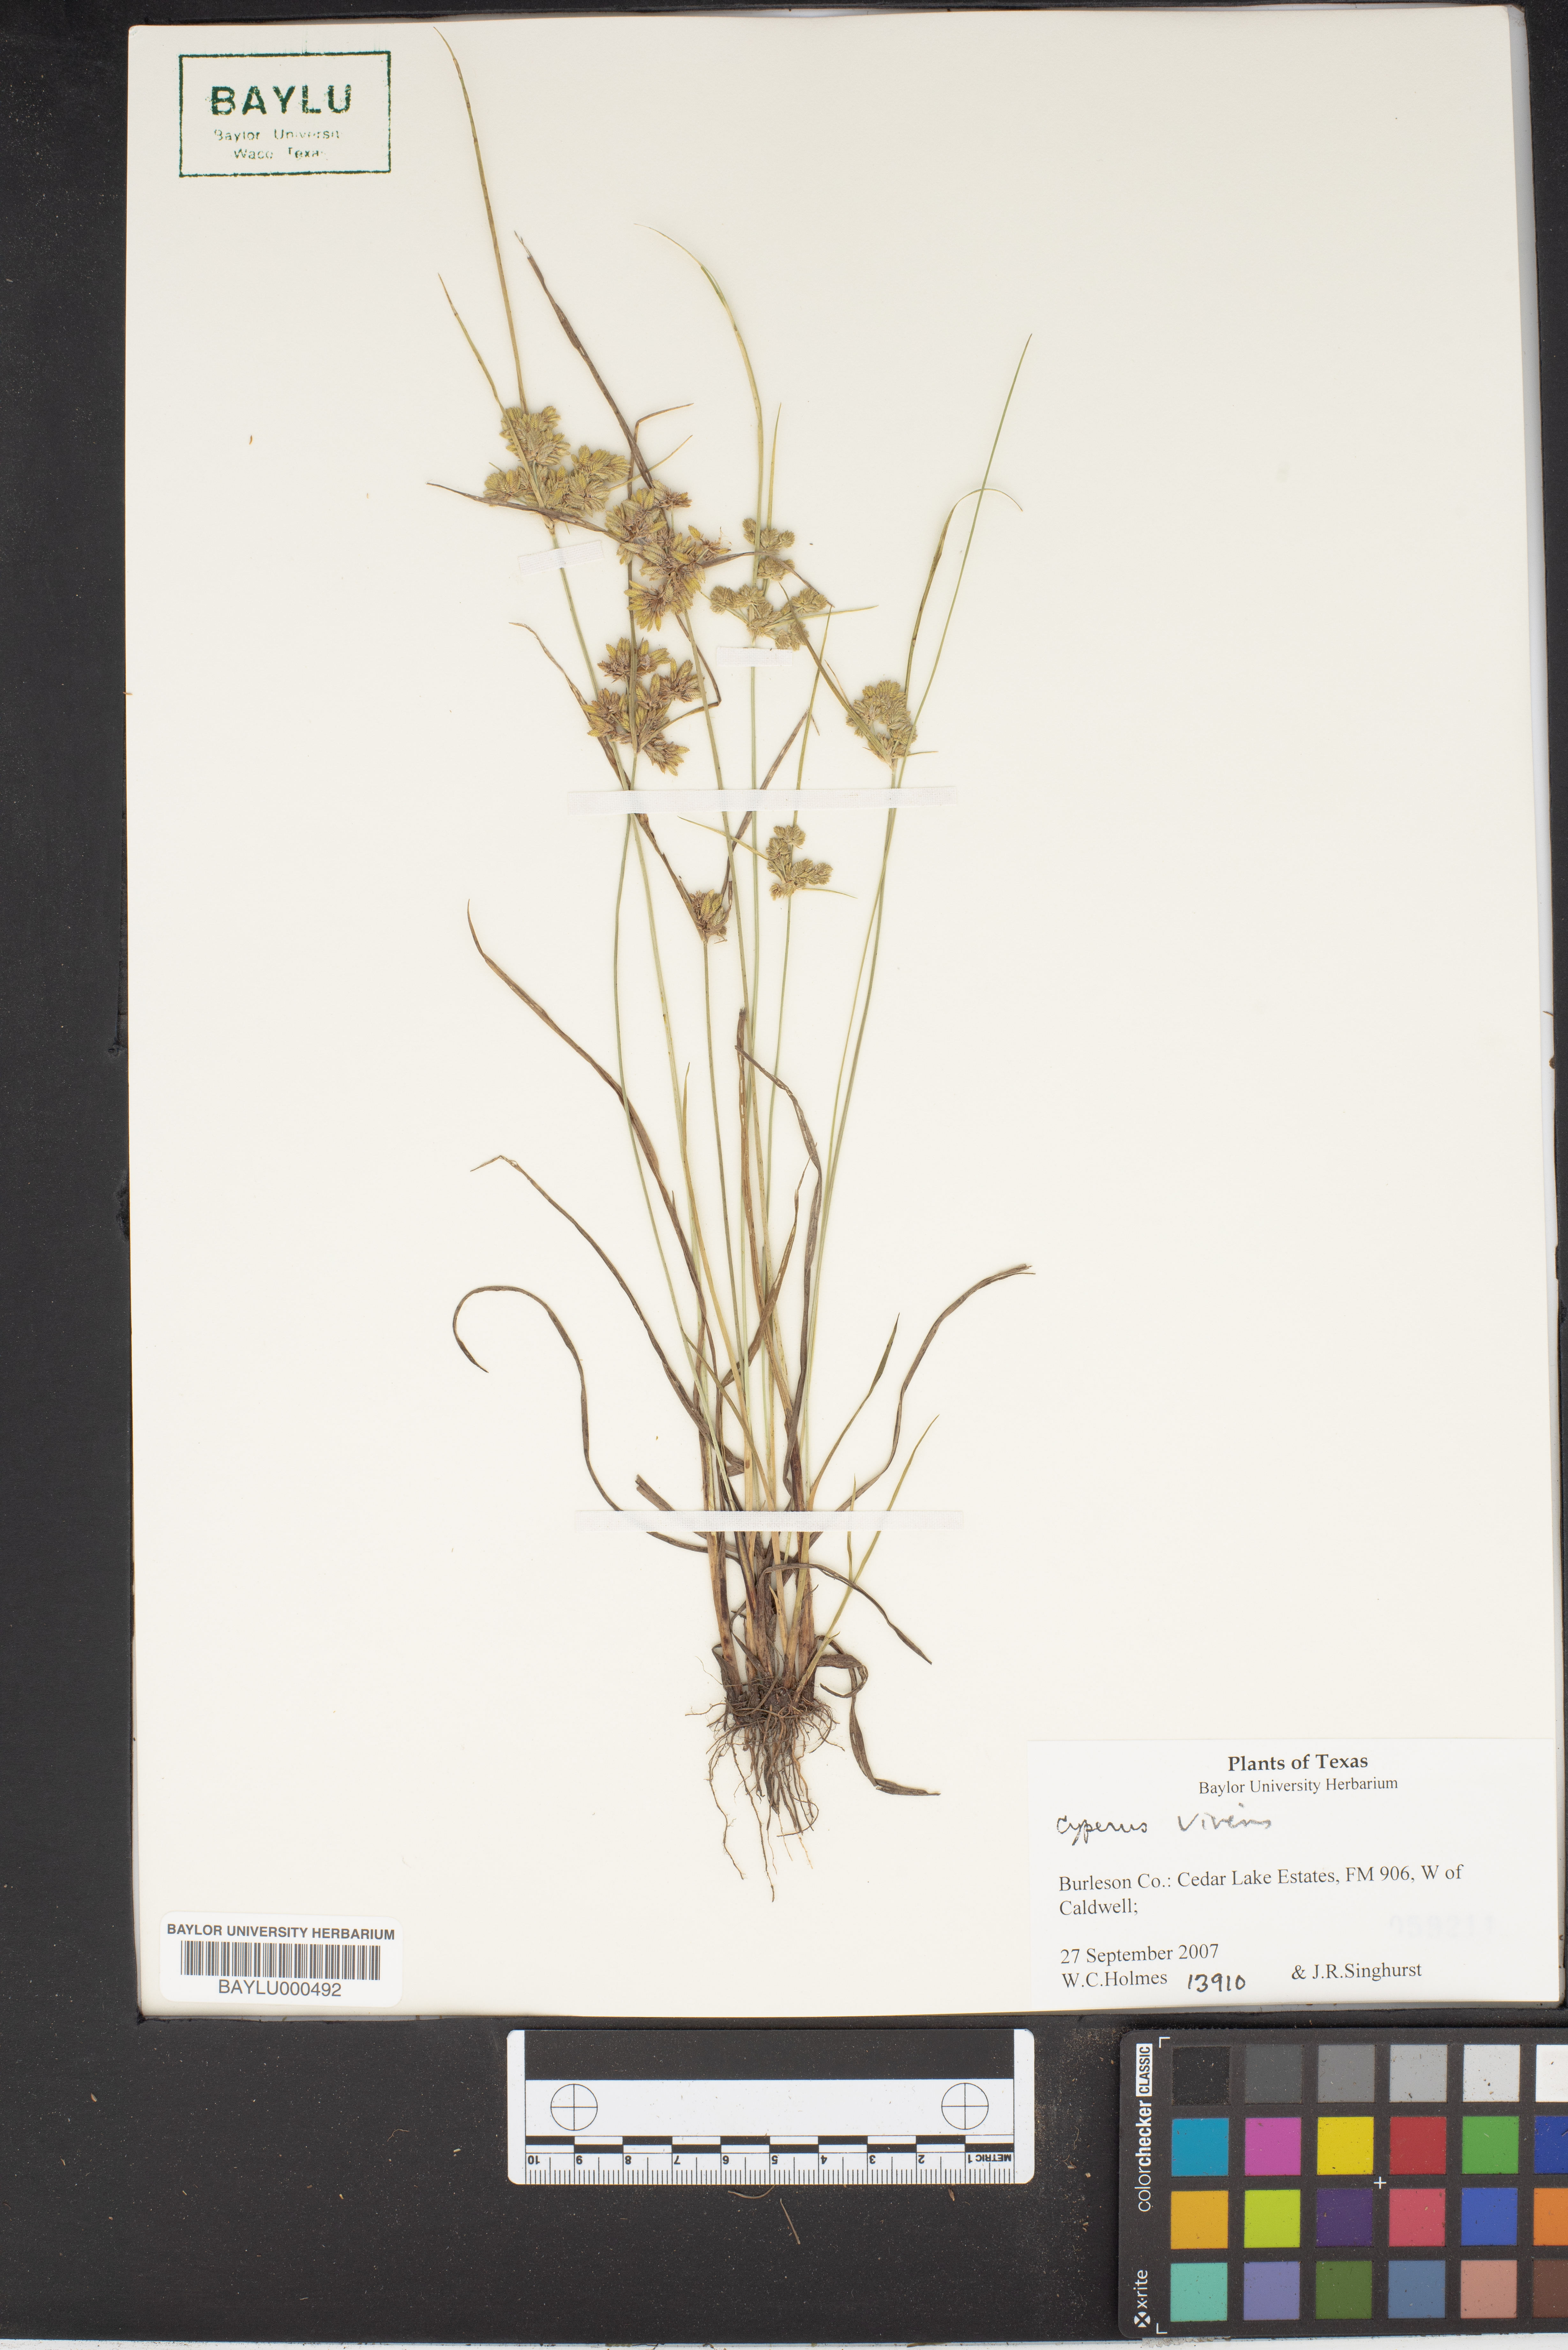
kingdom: Plantae
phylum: Tracheophyta
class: Liliopsida
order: Poales
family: Cyperaceae
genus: Cyperus
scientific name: Cyperus virens
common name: Green flatsedge
